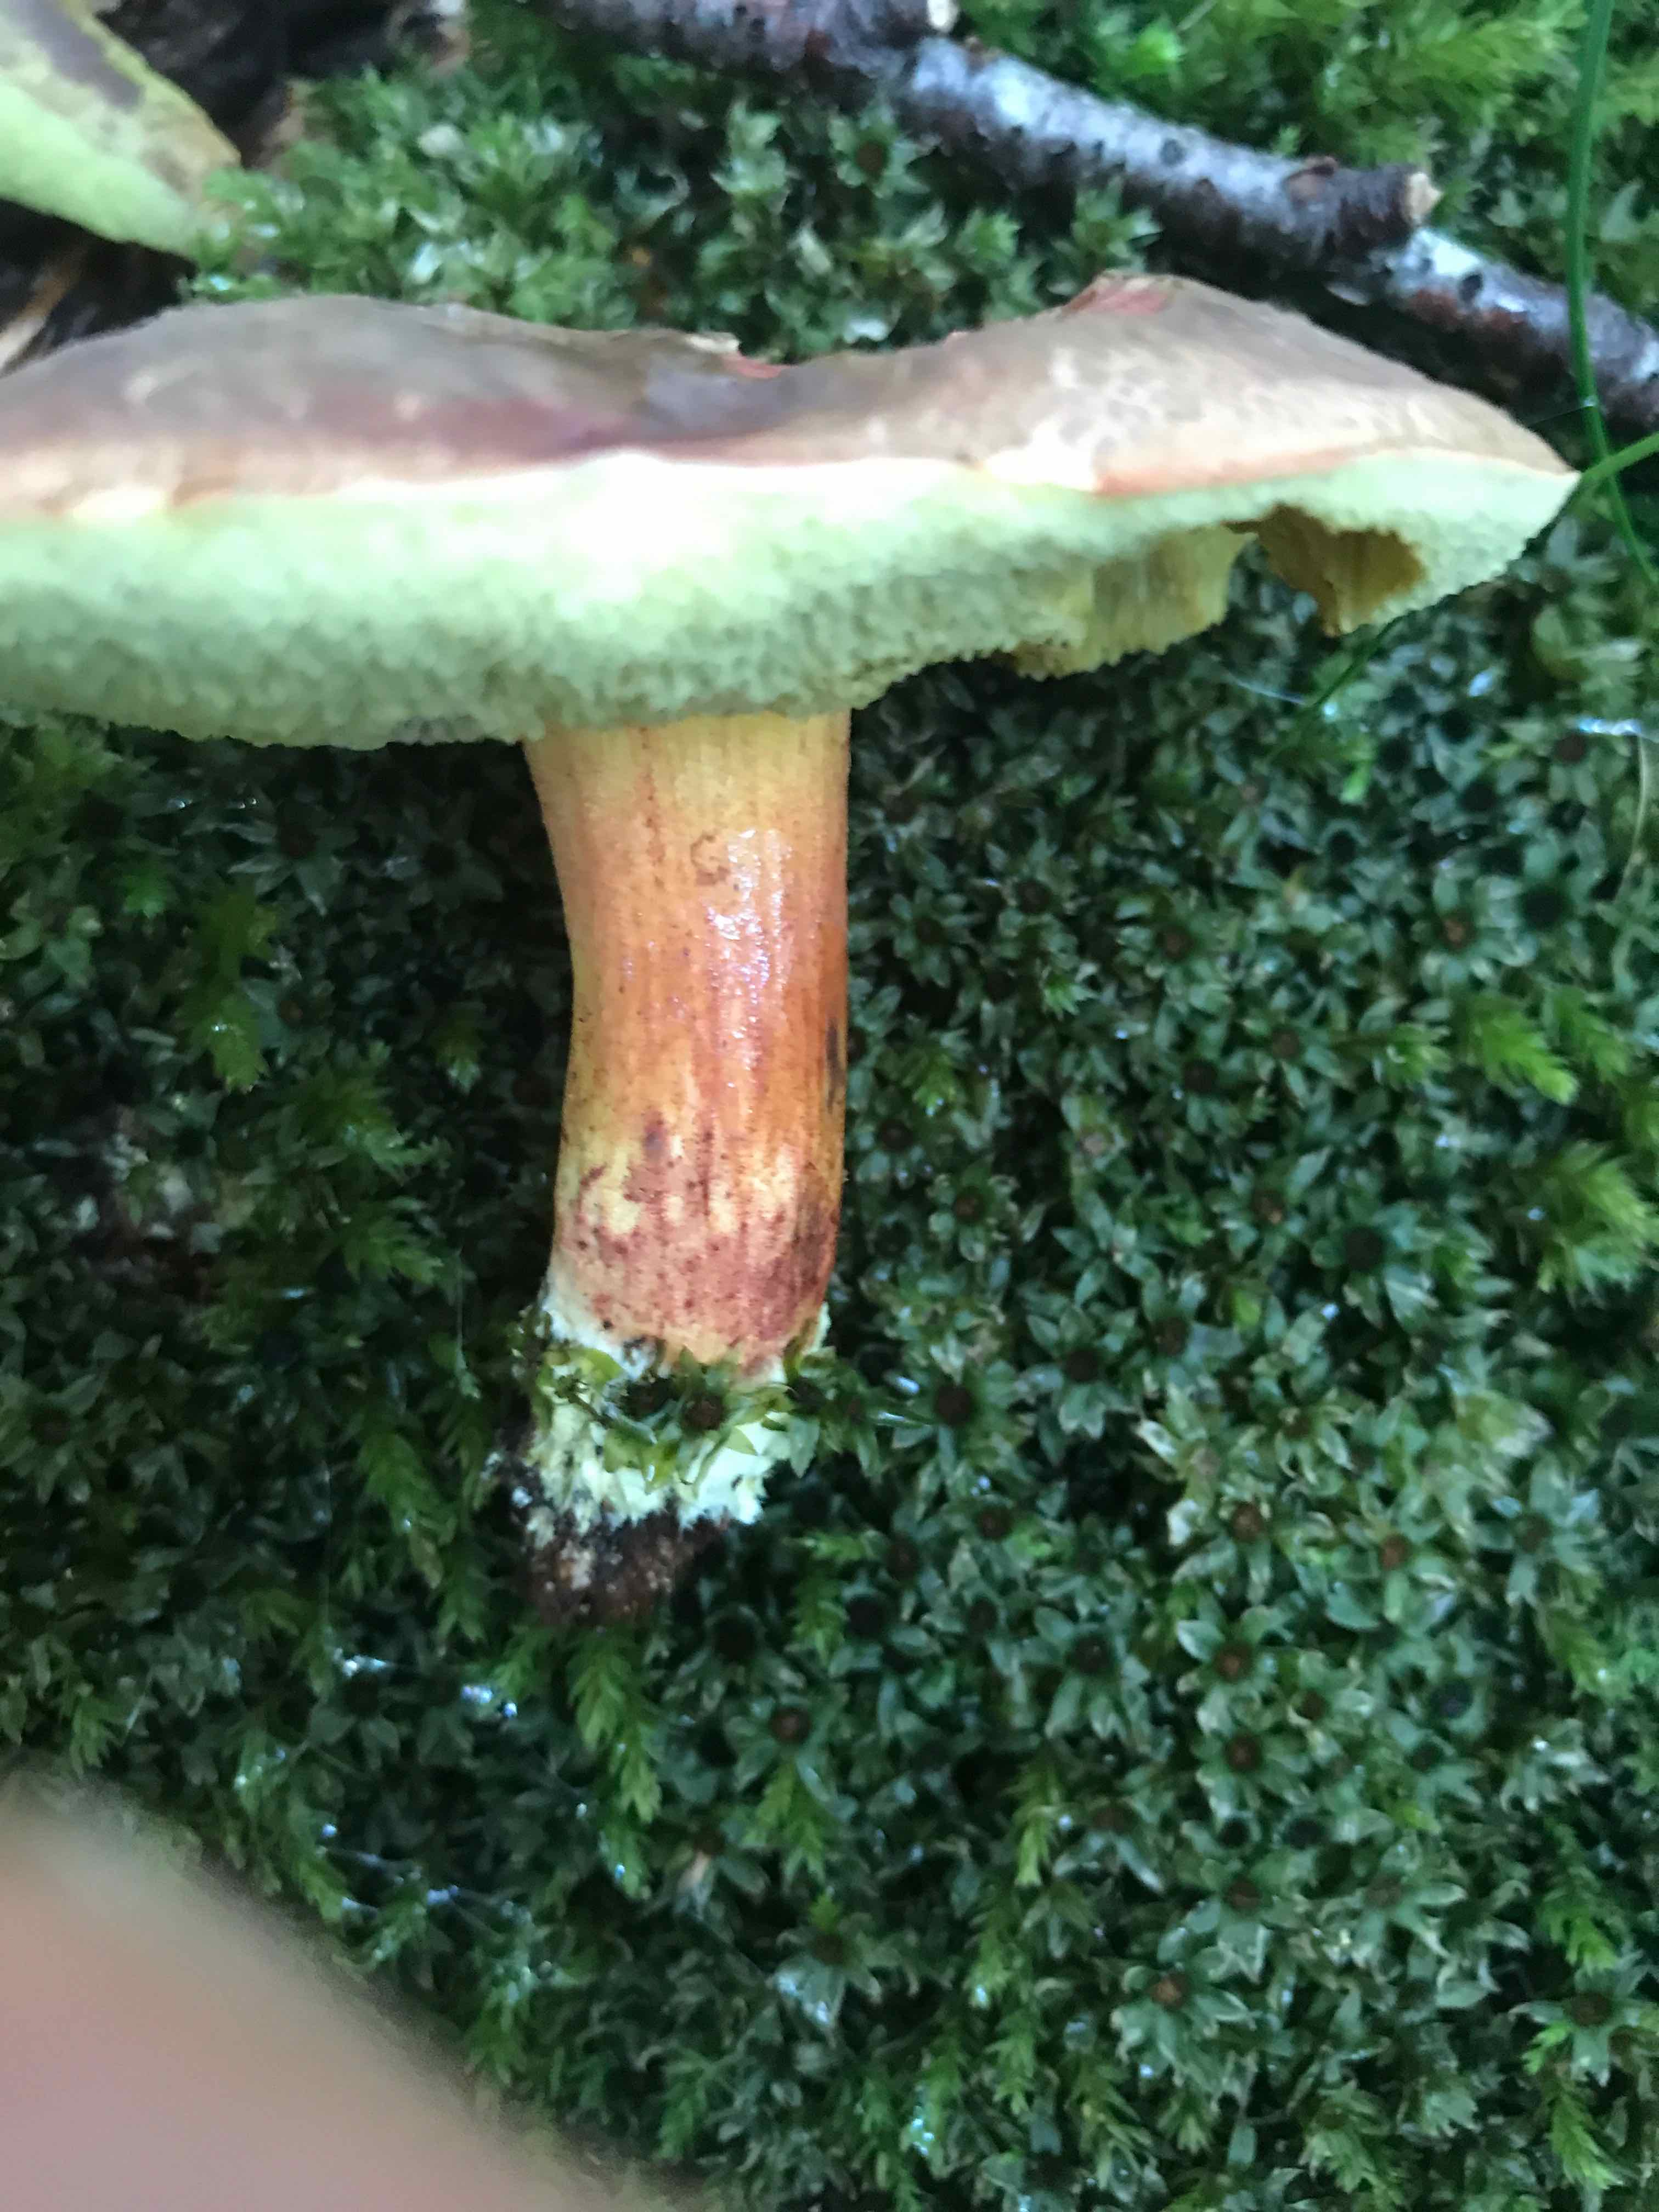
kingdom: Fungi
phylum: Basidiomycota
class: Agaricomycetes
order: Boletales
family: Boletaceae
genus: Xerocomellus
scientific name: Xerocomellus
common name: dværgrørhat
